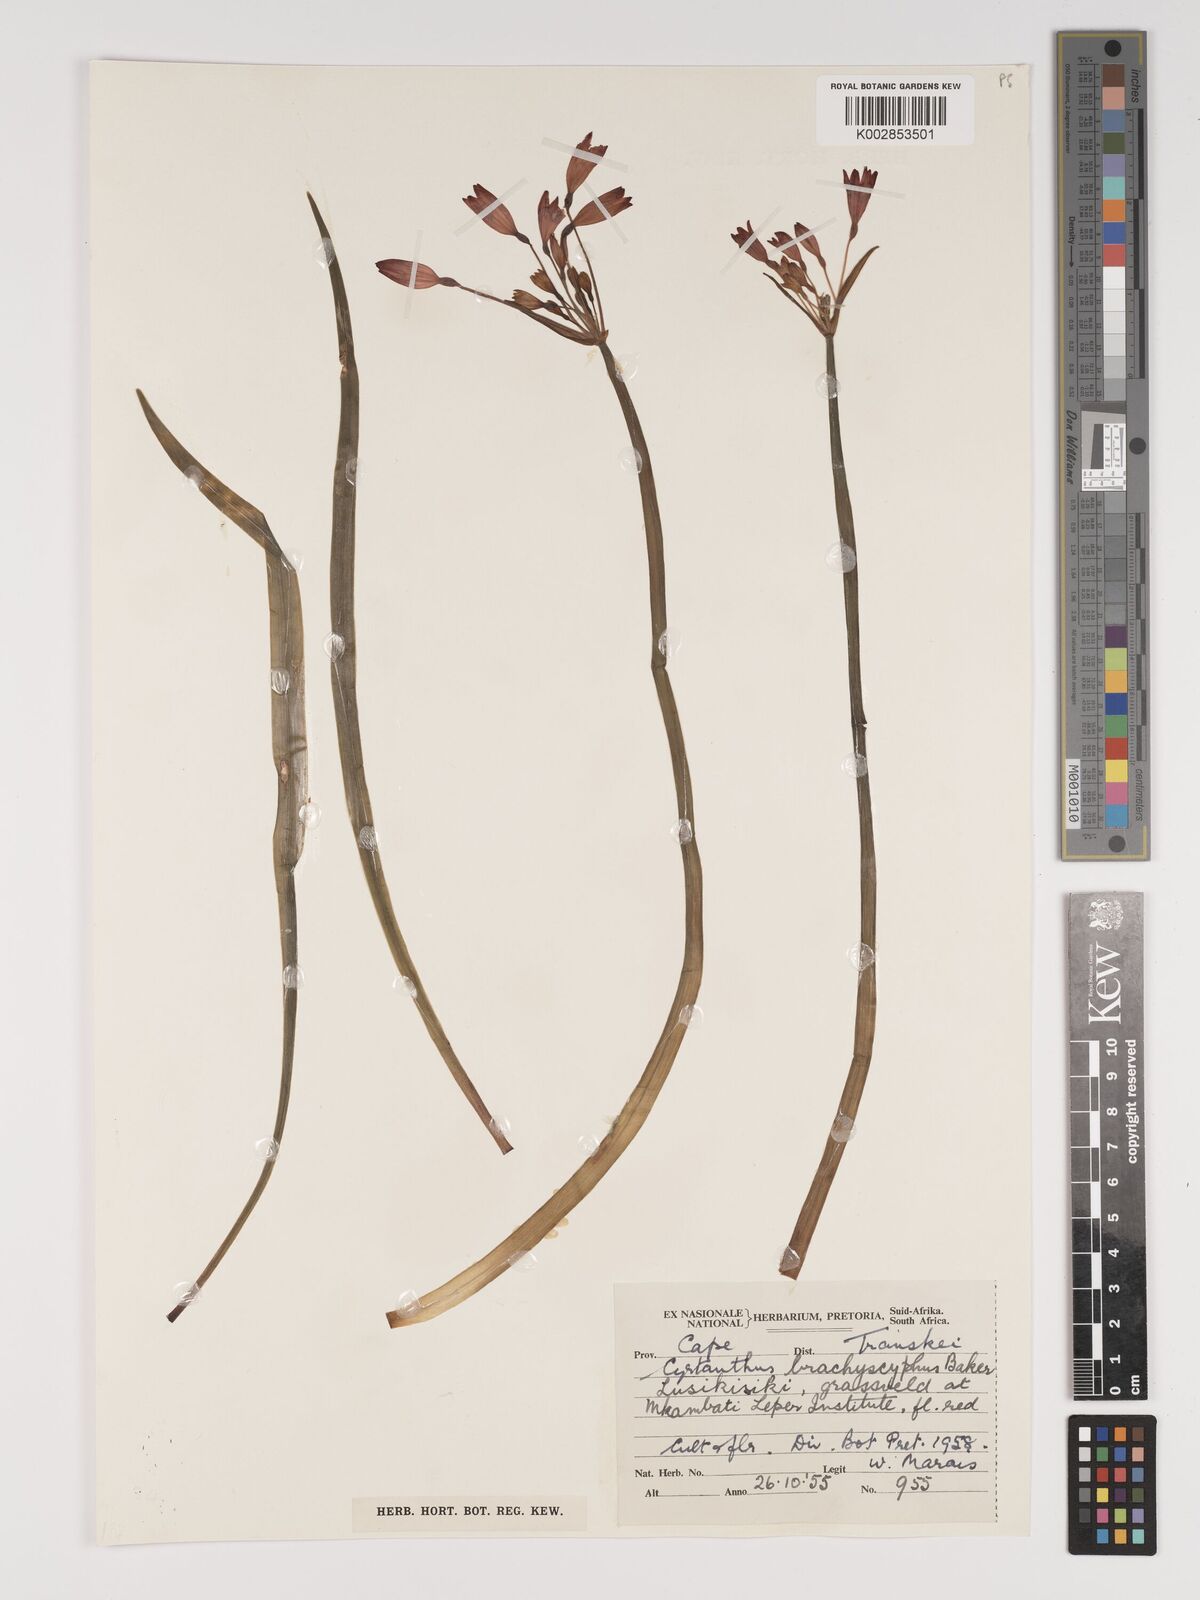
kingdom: Plantae
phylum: Tracheophyta
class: Liliopsida
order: Asparagales
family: Amaryllidaceae
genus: Cyrtanthus
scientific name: Cyrtanthus brachyscyphus
